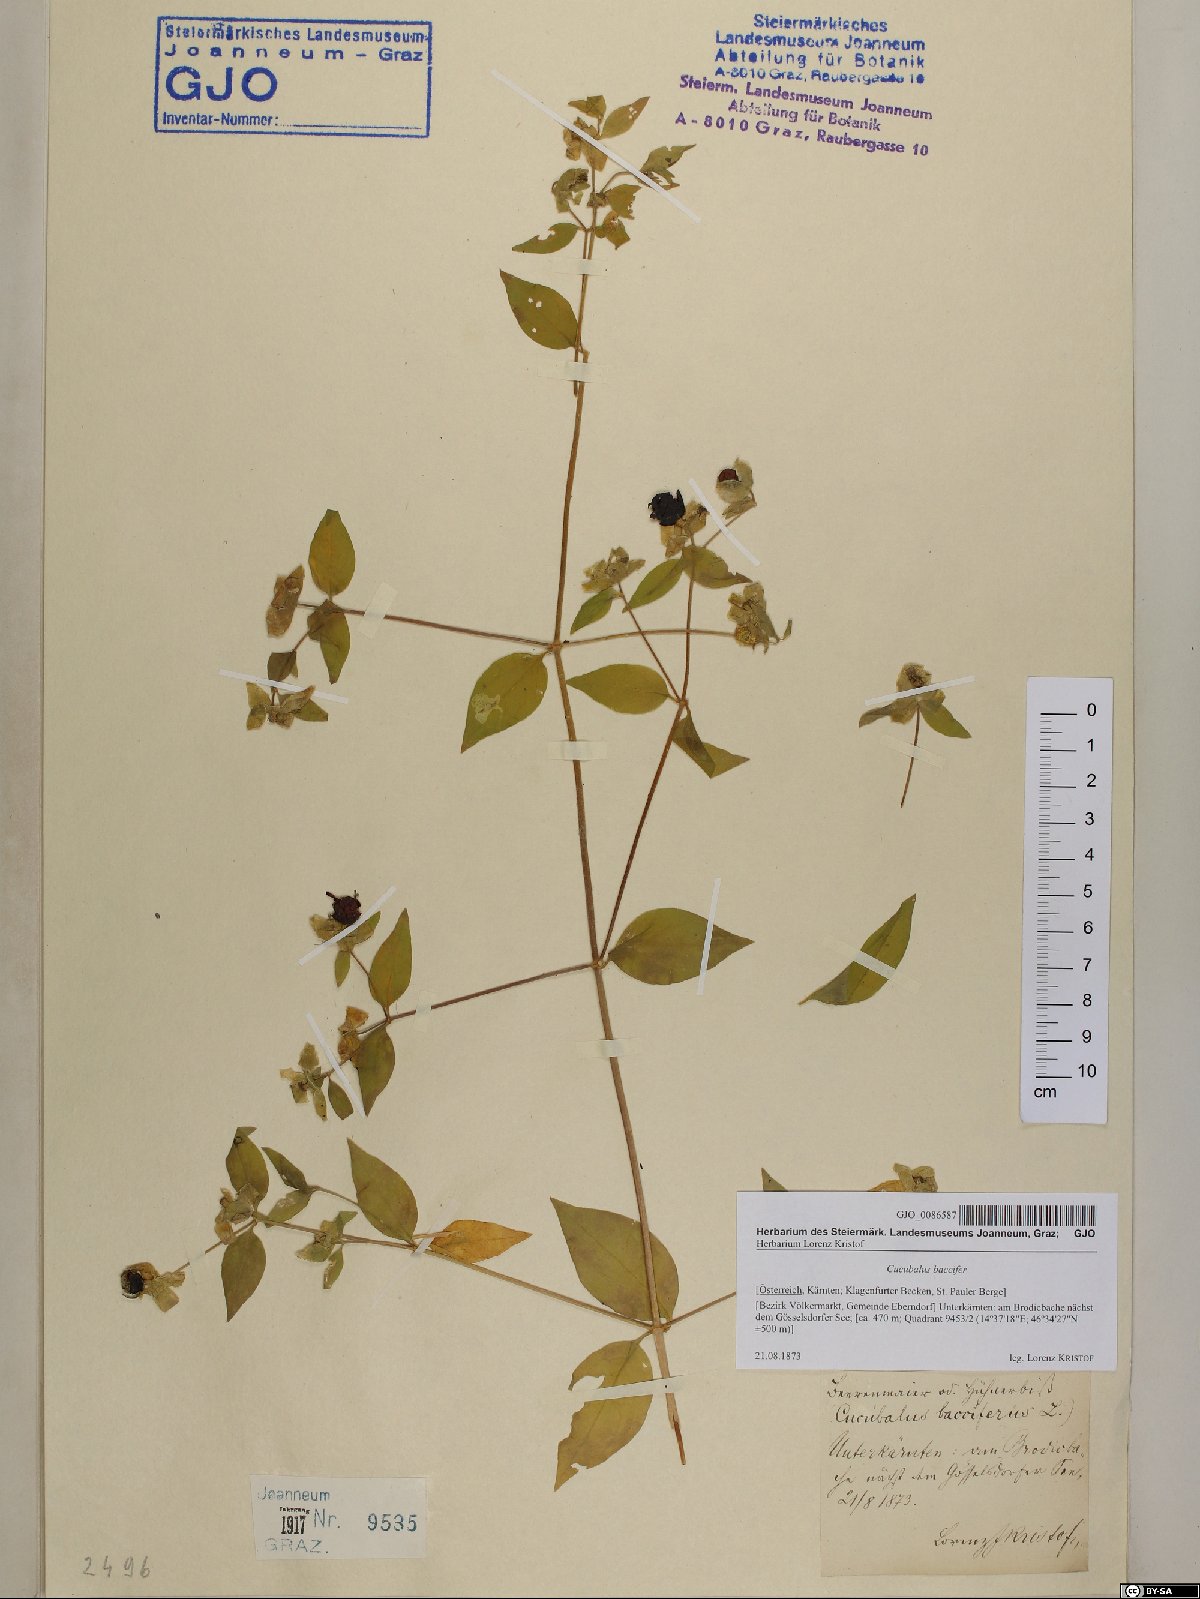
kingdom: Plantae
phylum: Tracheophyta
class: Magnoliopsida
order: Caryophyllales
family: Caryophyllaceae
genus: Silene
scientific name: Silene baccifera
